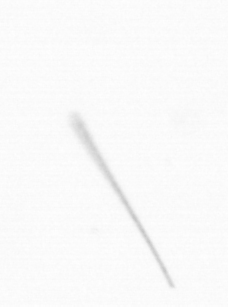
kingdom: Chromista
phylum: Ochrophyta
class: Bacillariophyceae
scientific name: Bacillariophyceae
